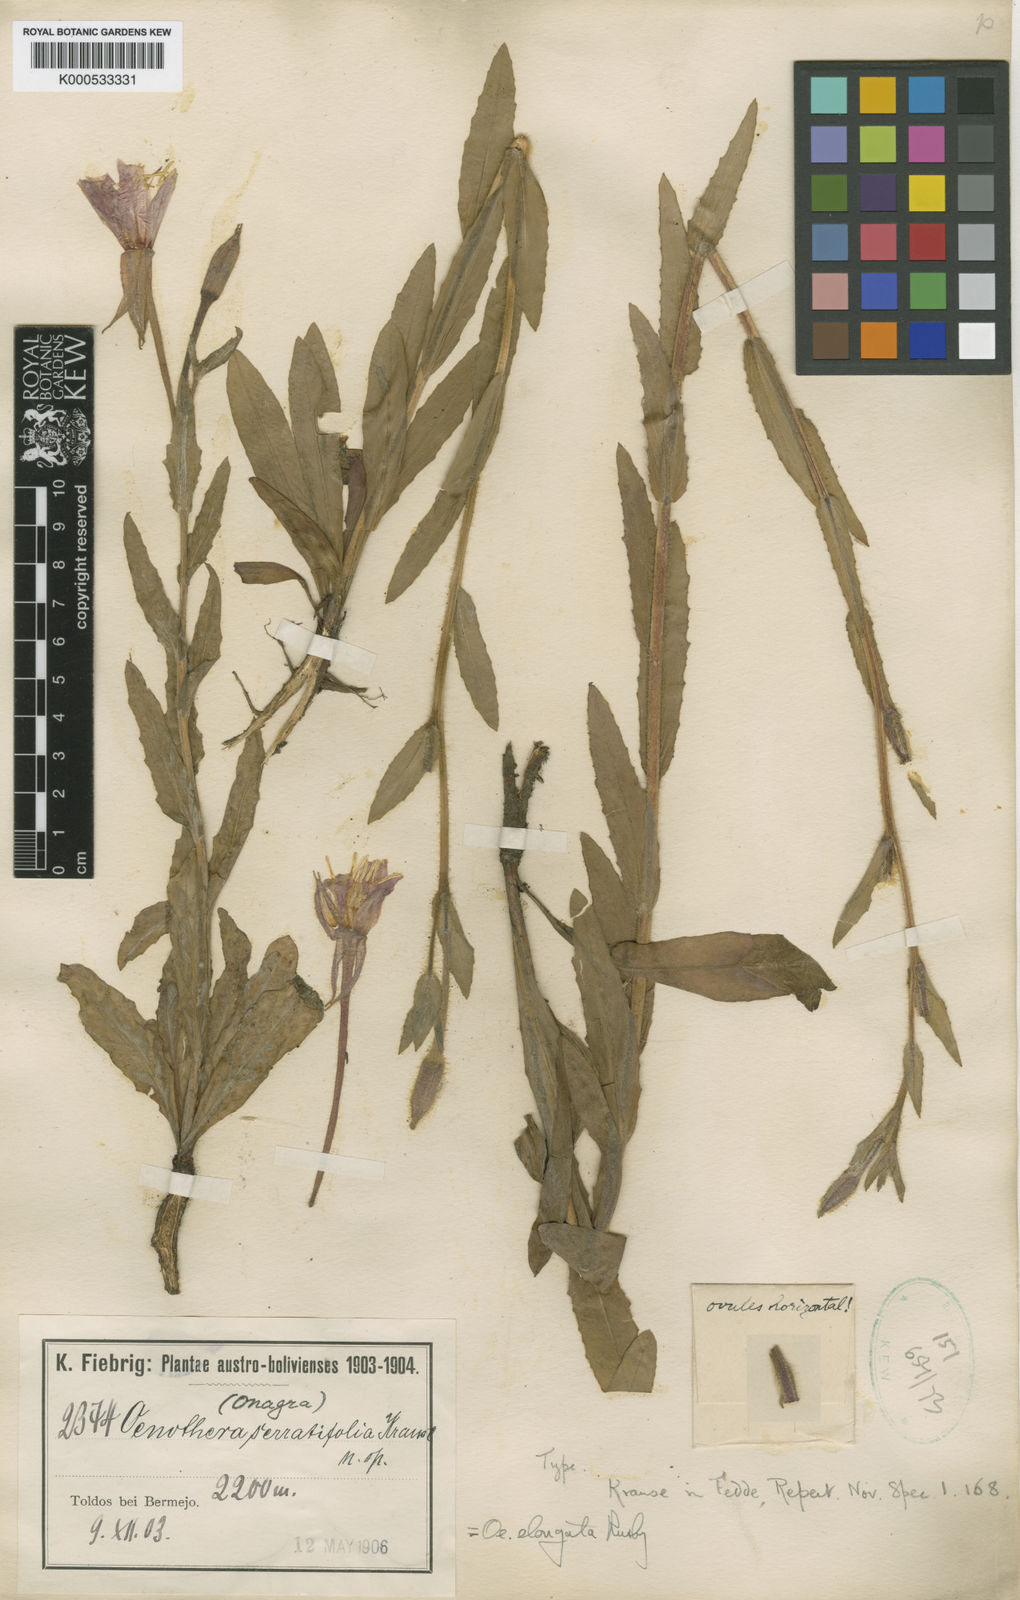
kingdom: Plantae
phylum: Tracheophyta
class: Magnoliopsida
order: Myrtales
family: Onagraceae
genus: Oenothera
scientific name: Oenothera featherstonei
